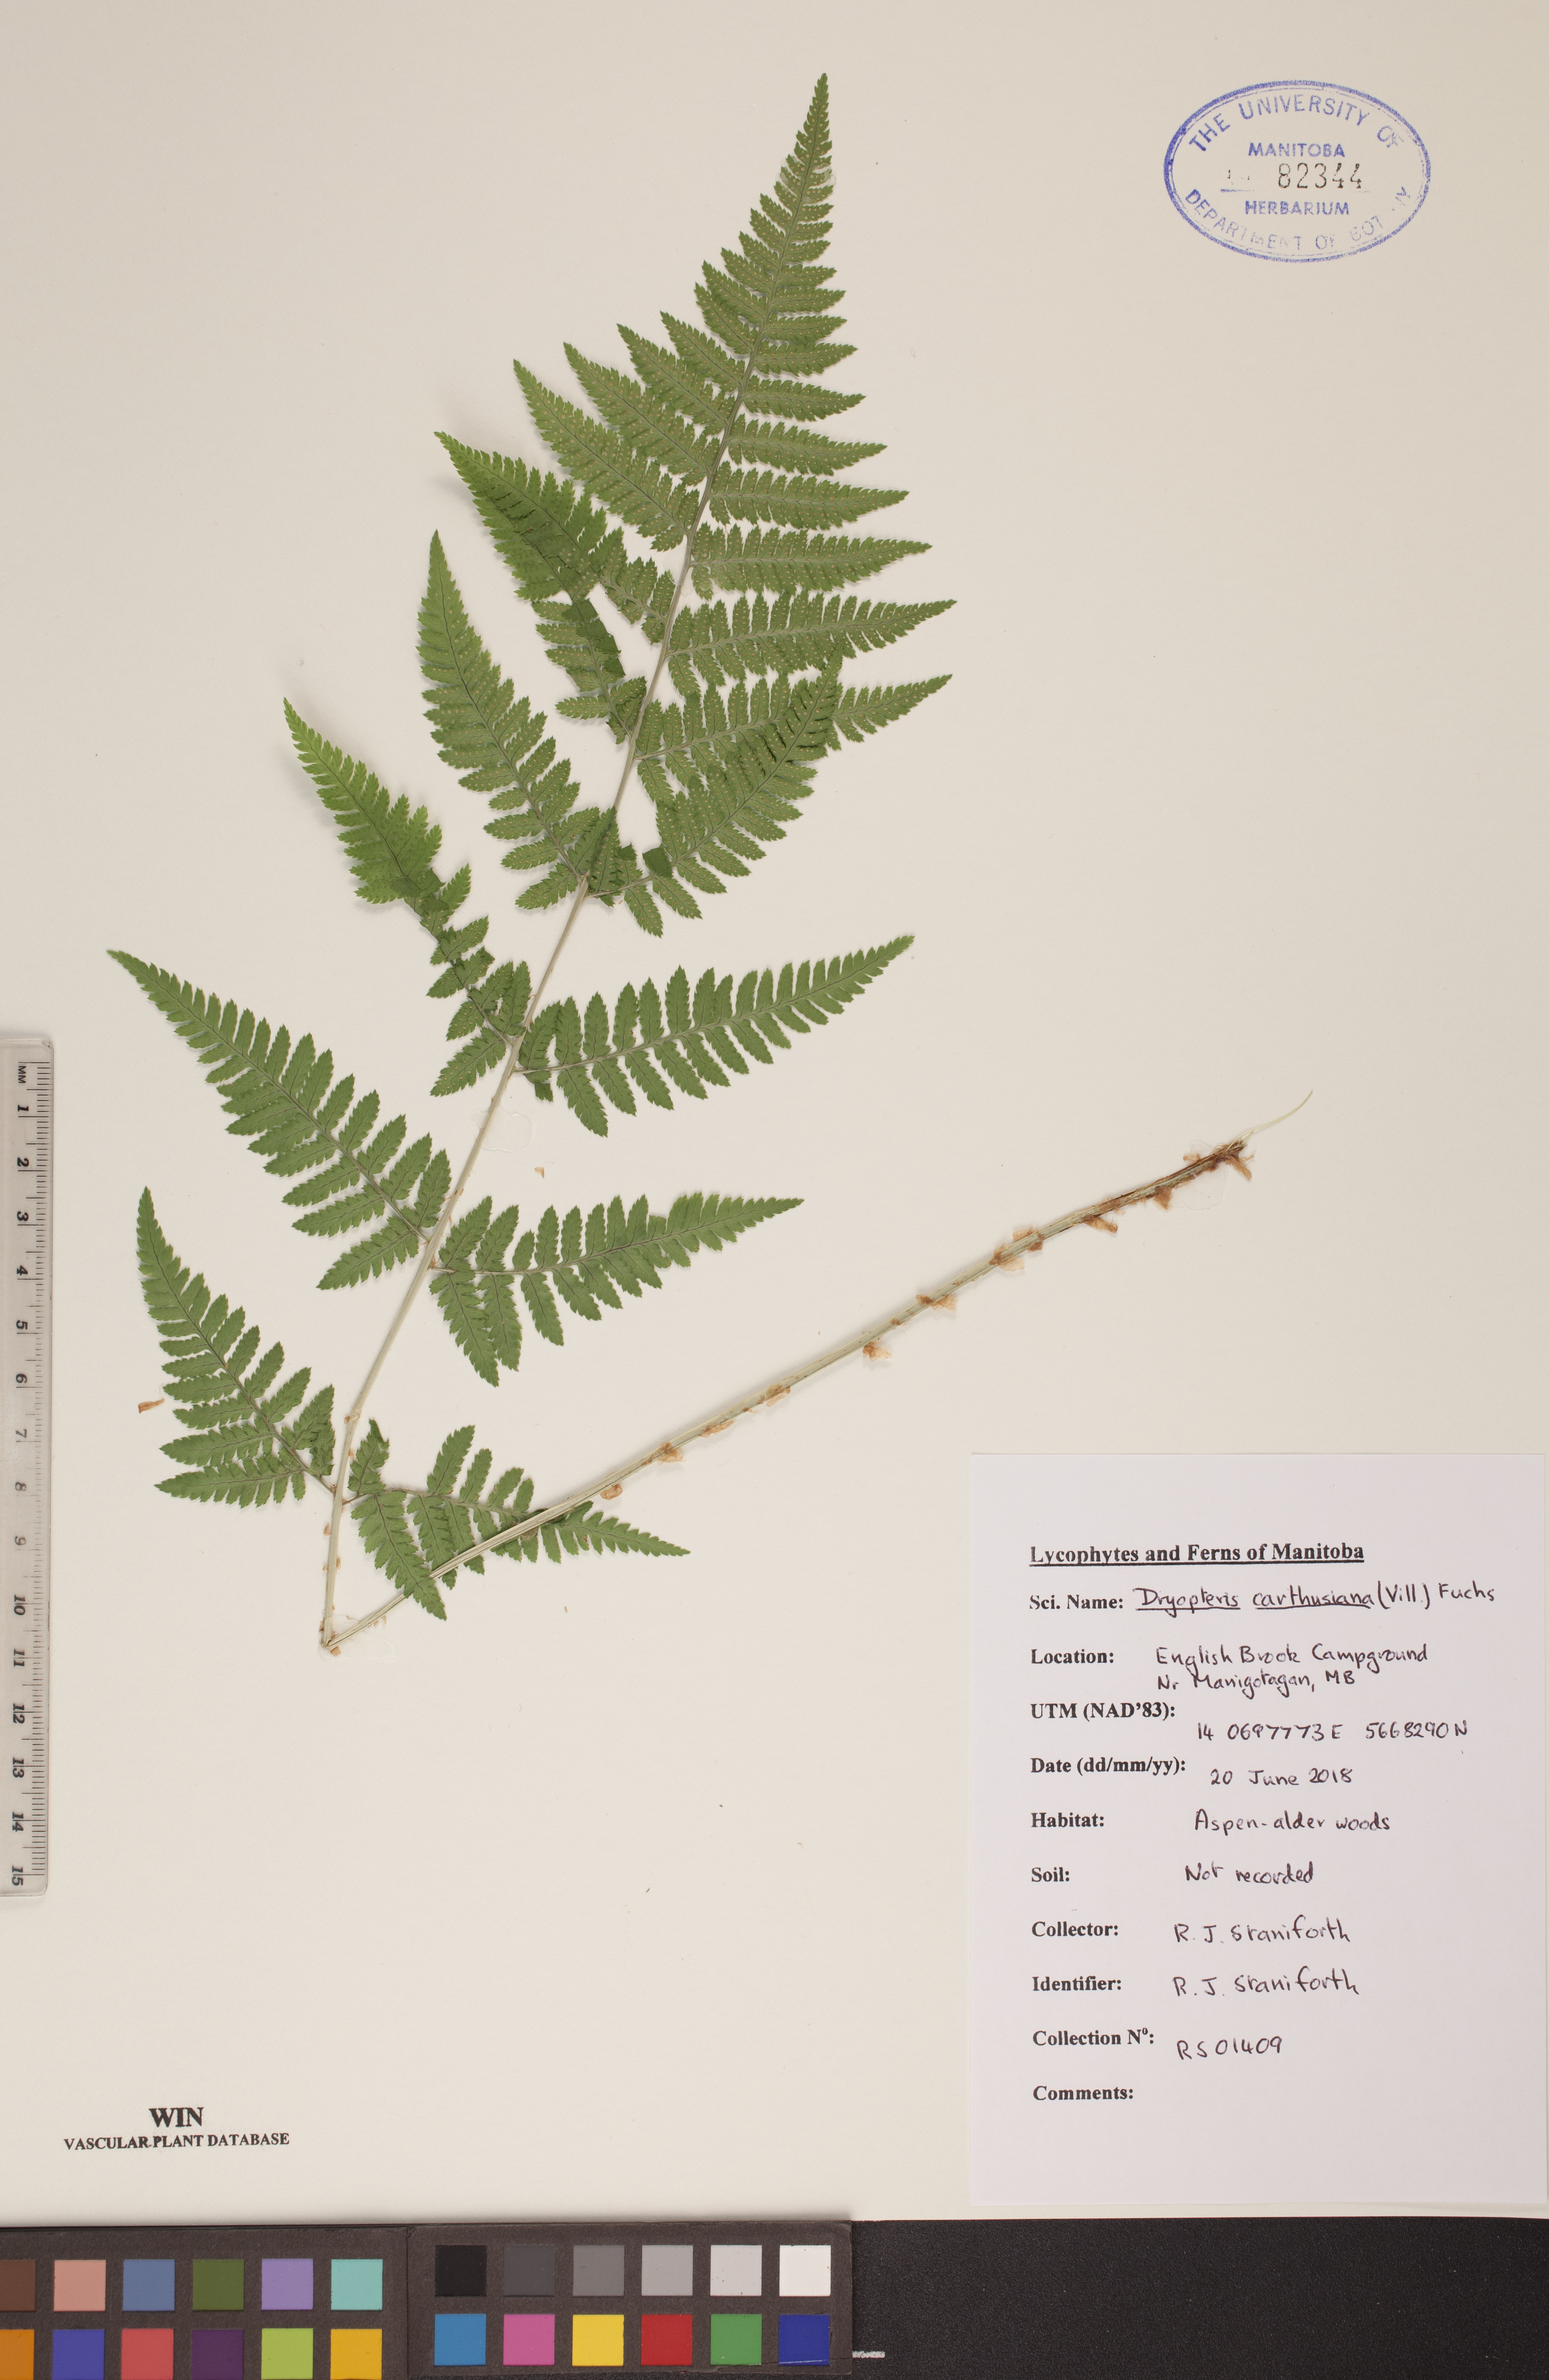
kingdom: Plantae
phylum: Tracheophyta
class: Polypodiopsida
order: Polypodiales
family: Dryopteridaceae
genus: Dryopteris
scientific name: Dryopteris carthusiana
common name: Narrow buckler-fern
